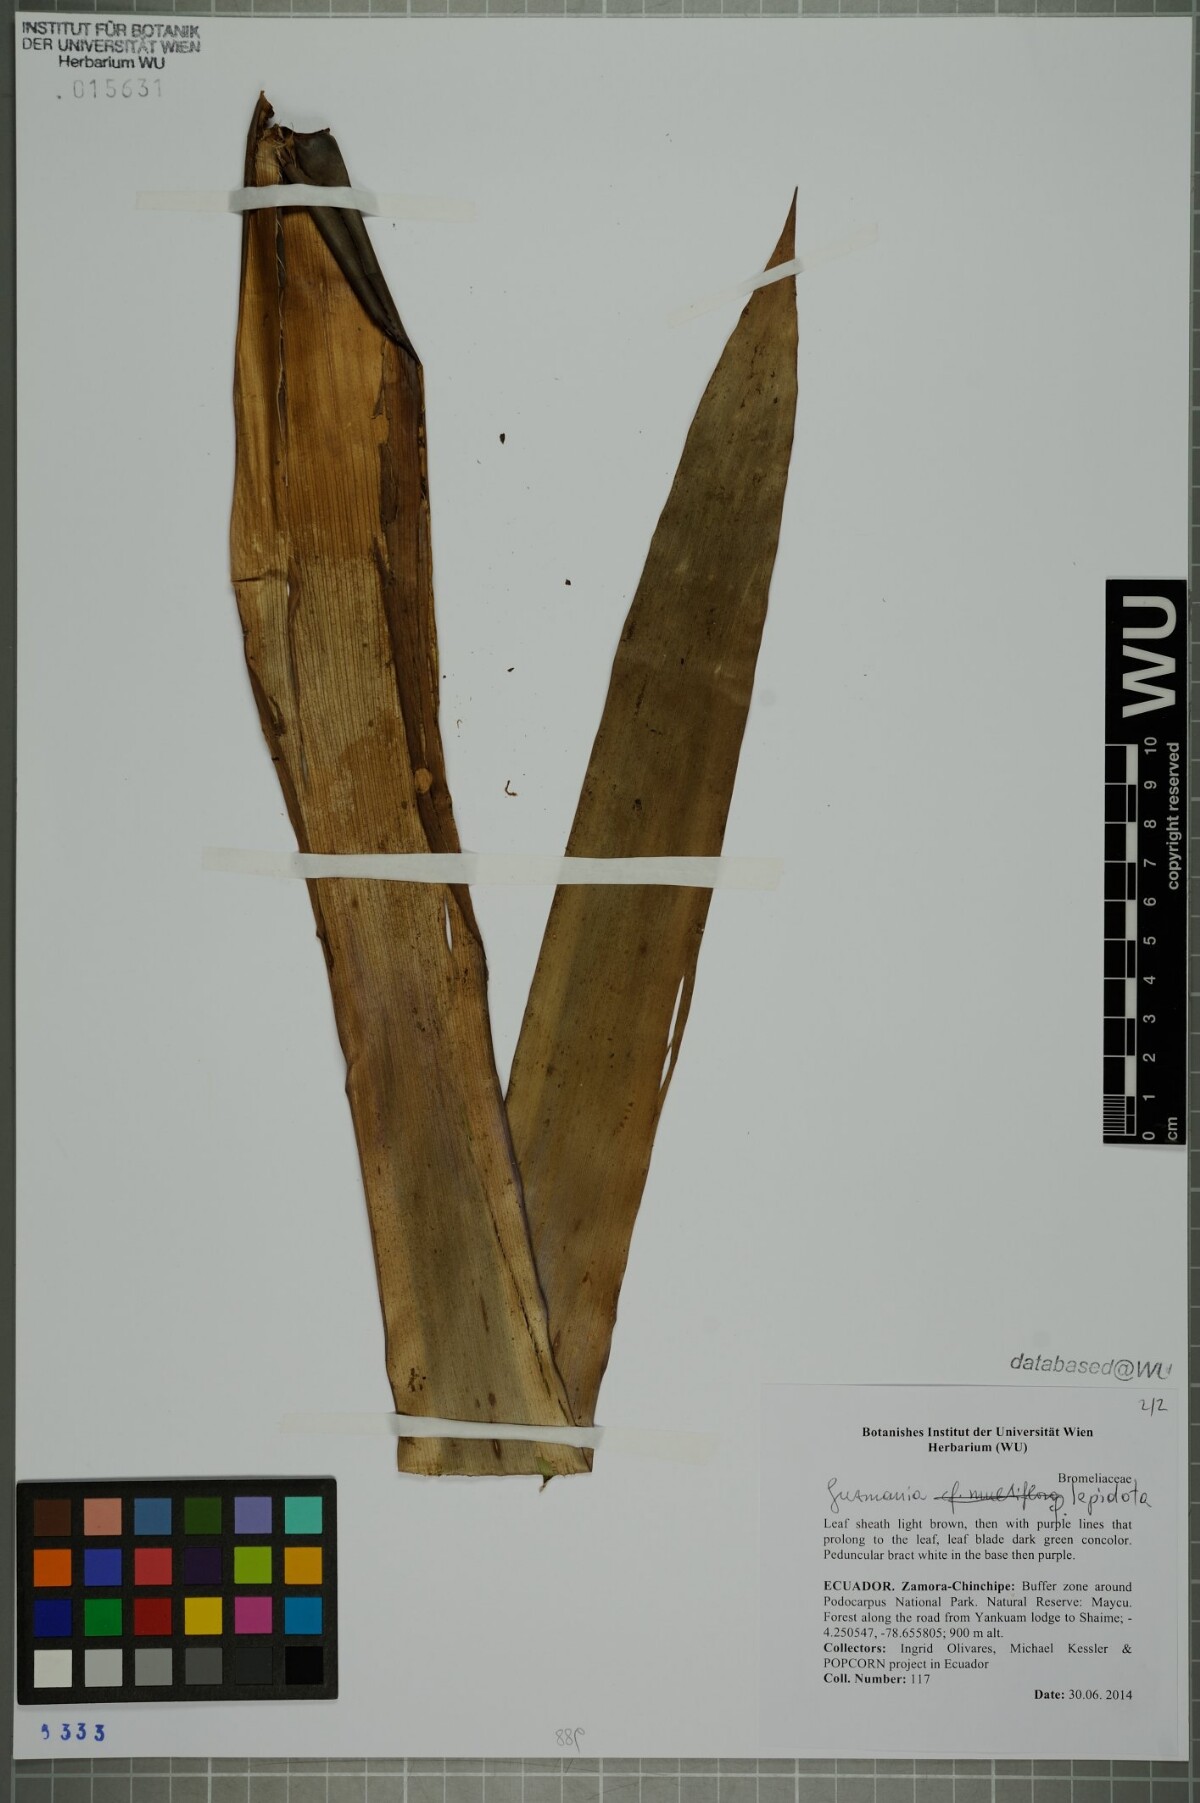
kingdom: Plantae
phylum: Tracheophyta
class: Liliopsida
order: Poales
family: Bromeliaceae
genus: Guzmania
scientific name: Guzmania lepidota
